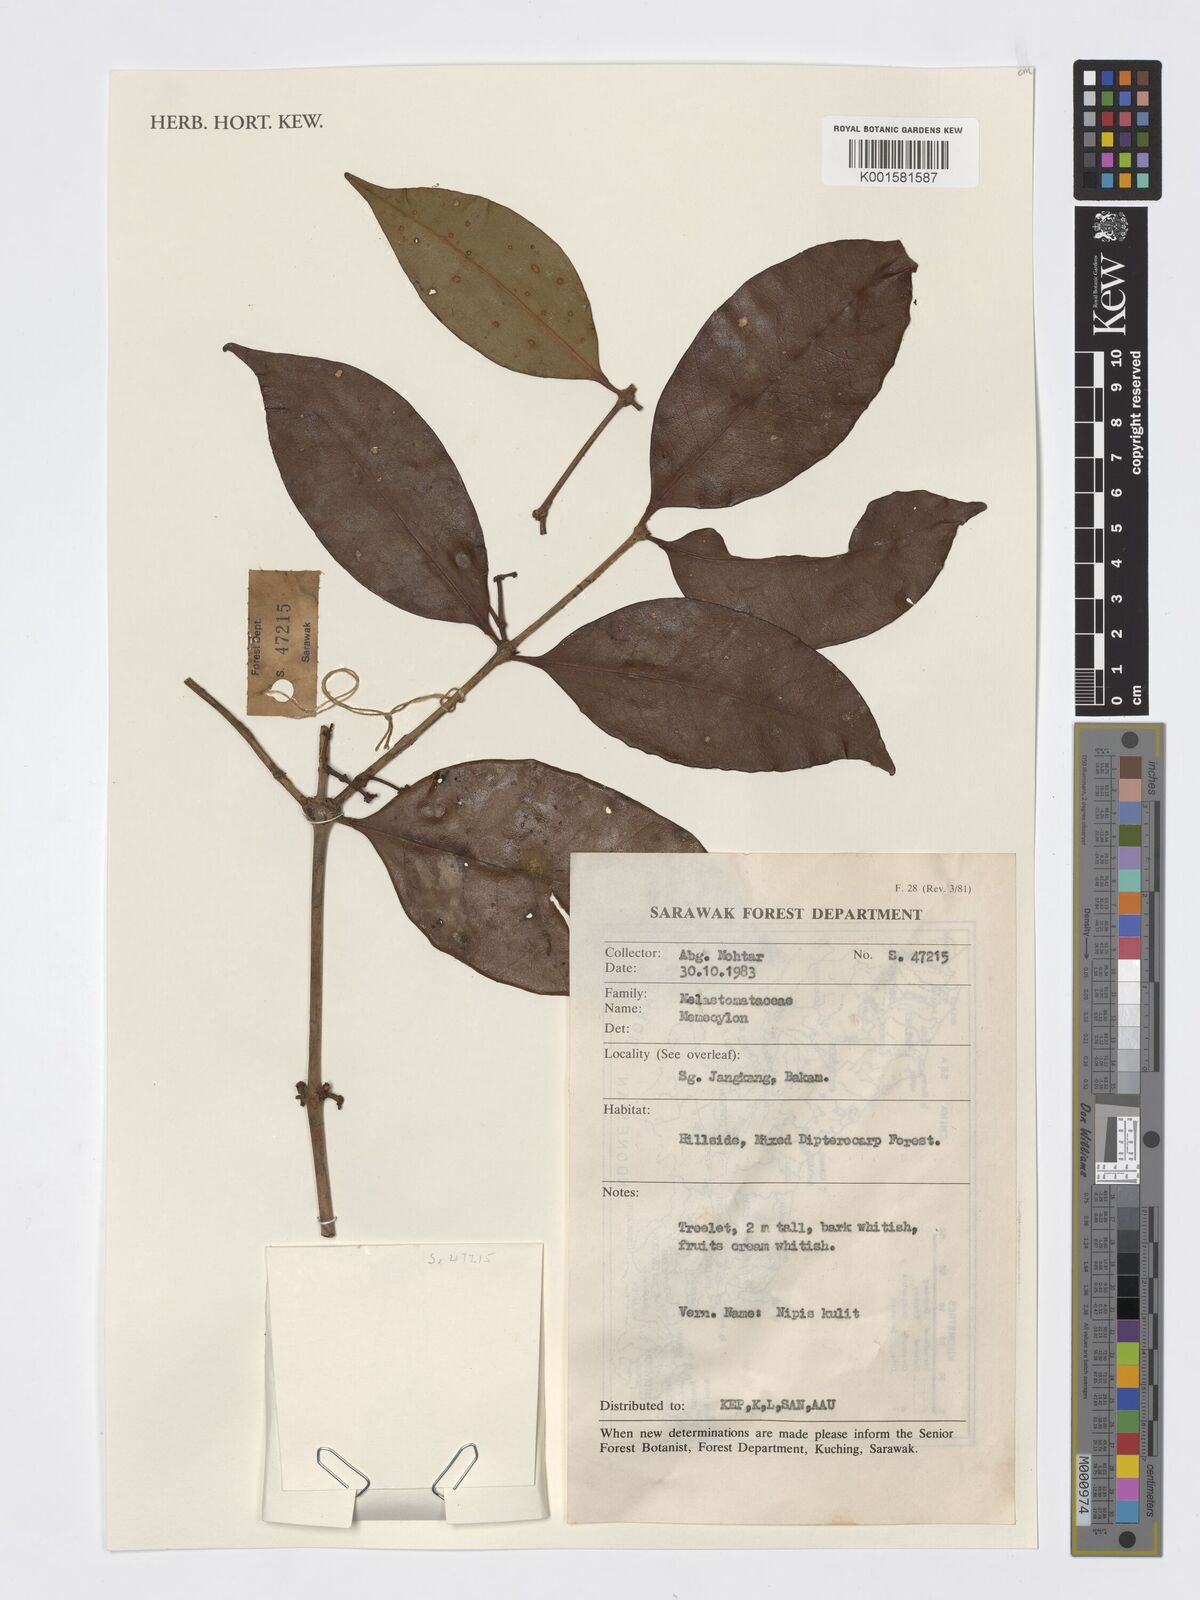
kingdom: Plantae
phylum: Tracheophyta
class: Magnoliopsida
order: Myrtales
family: Melastomataceae
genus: Memecylon
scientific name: Memecylon
